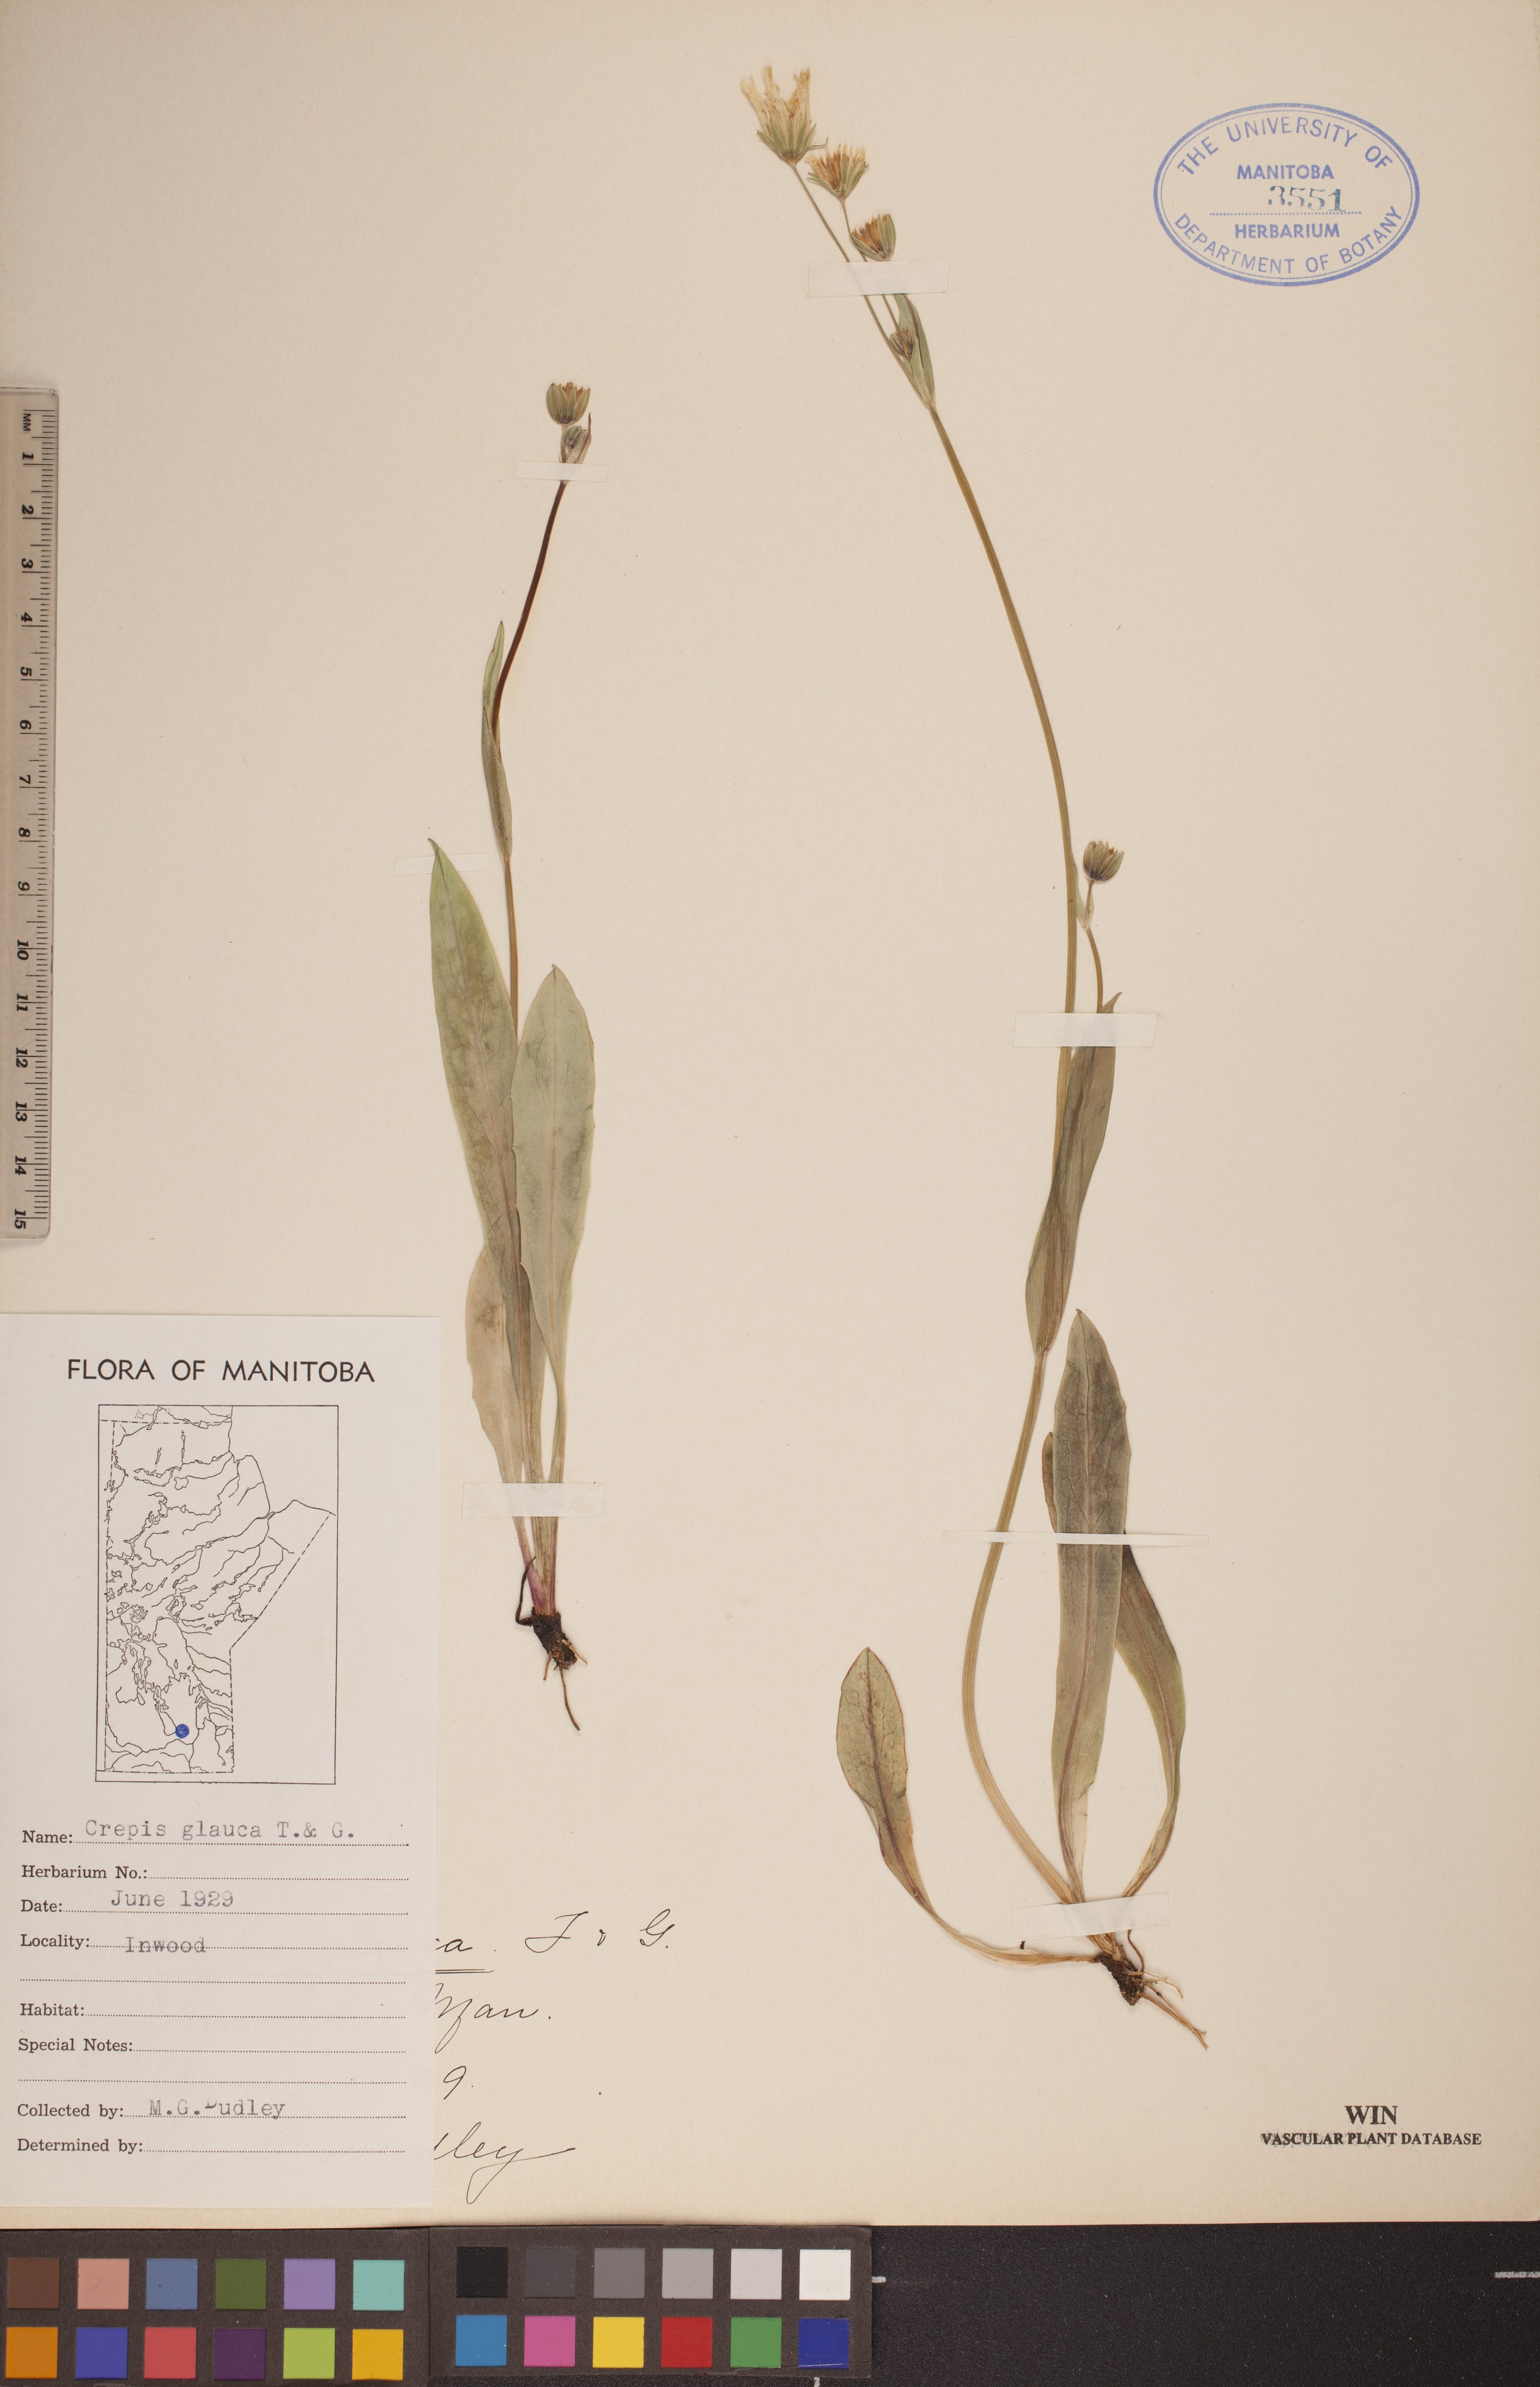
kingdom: Plantae
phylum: Tracheophyta
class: Magnoliopsida
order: Asterales
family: Asteraceae
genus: Crepis
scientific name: Crepis runcinata
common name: Dandelion hawksbeard
